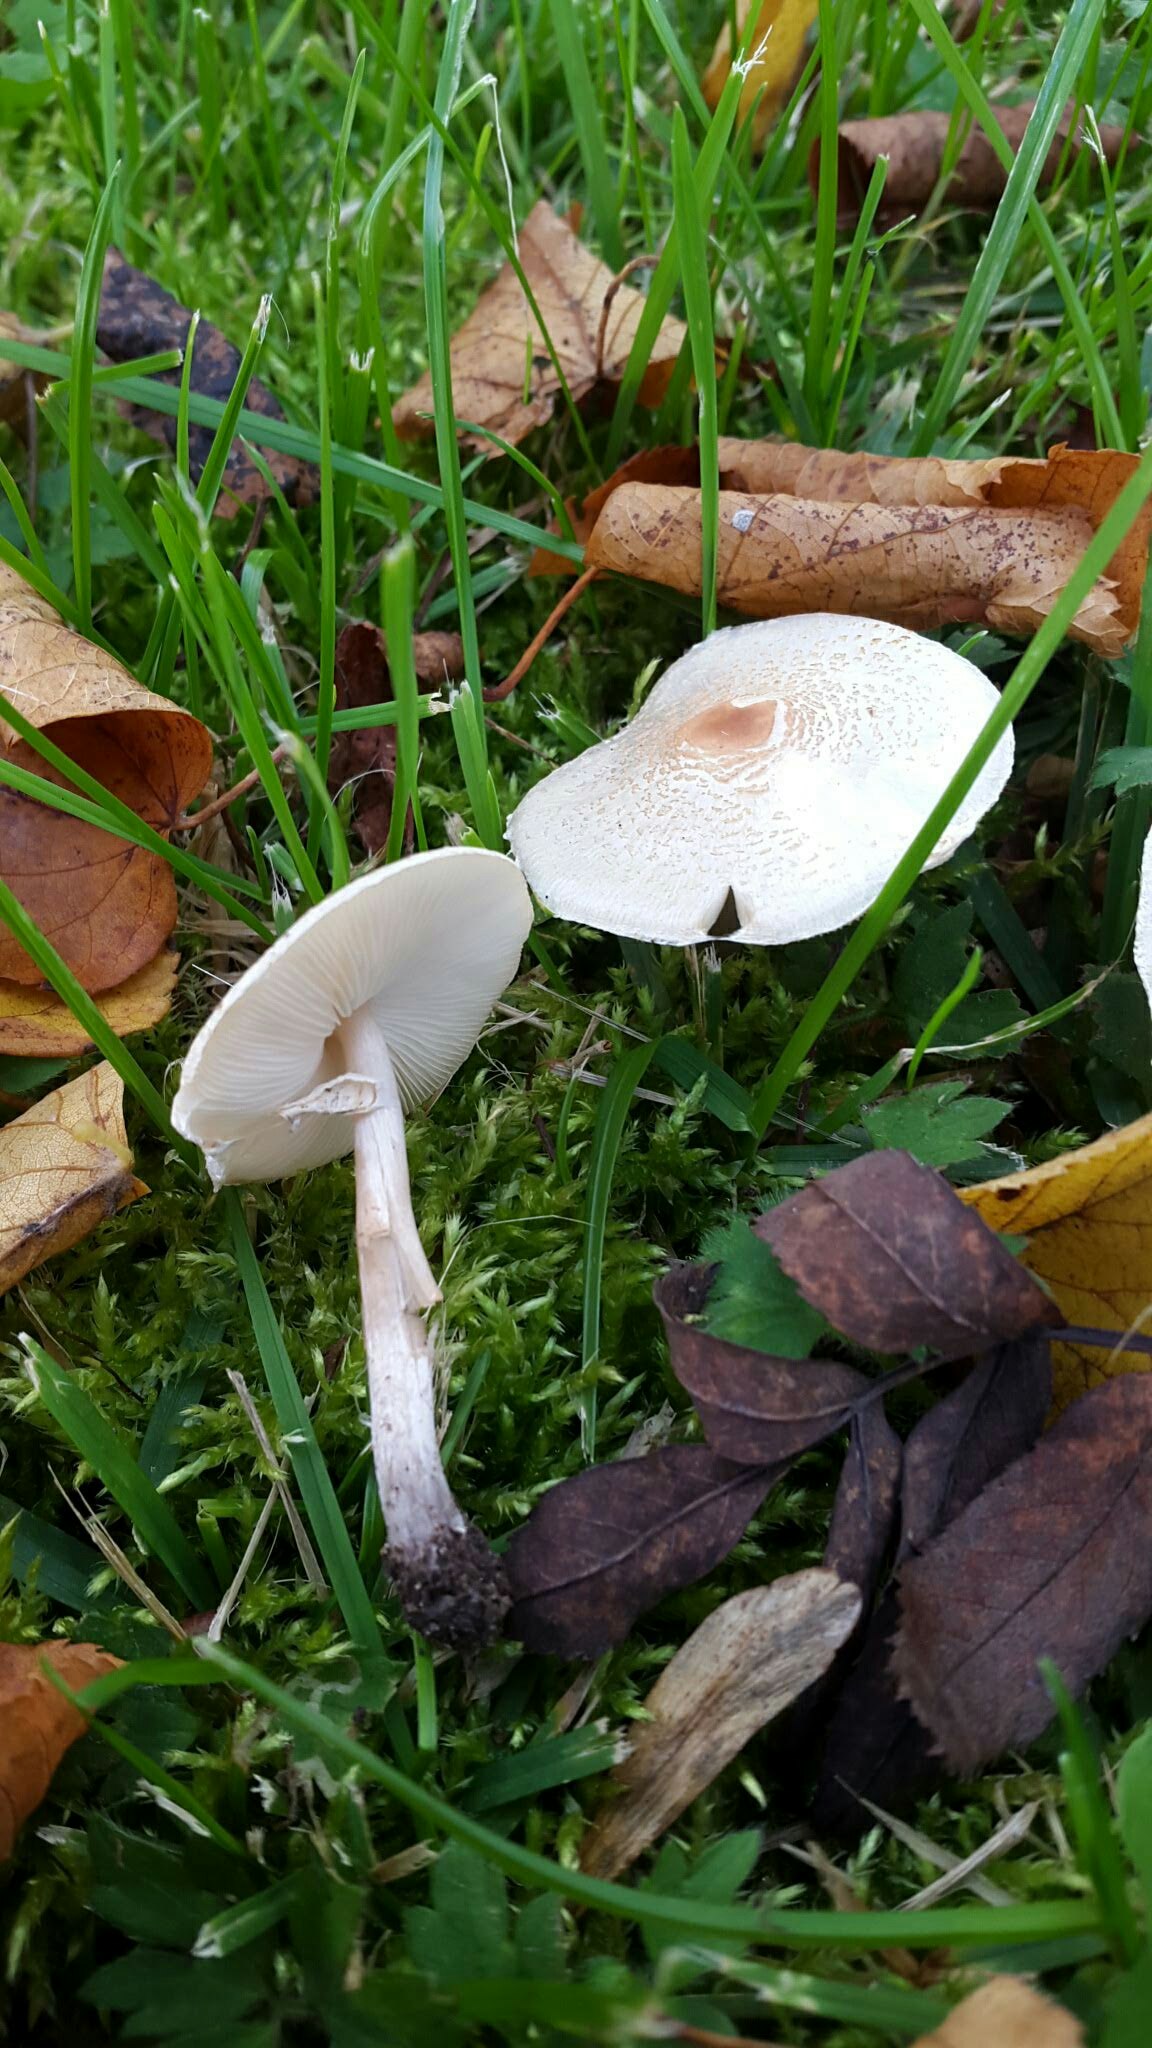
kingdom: Fungi
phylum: Basidiomycota
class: Agaricomycetes
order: Agaricales
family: Agaricaceae
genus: Lepiota
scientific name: Lepiota cristata
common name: stinkende parasolhat
